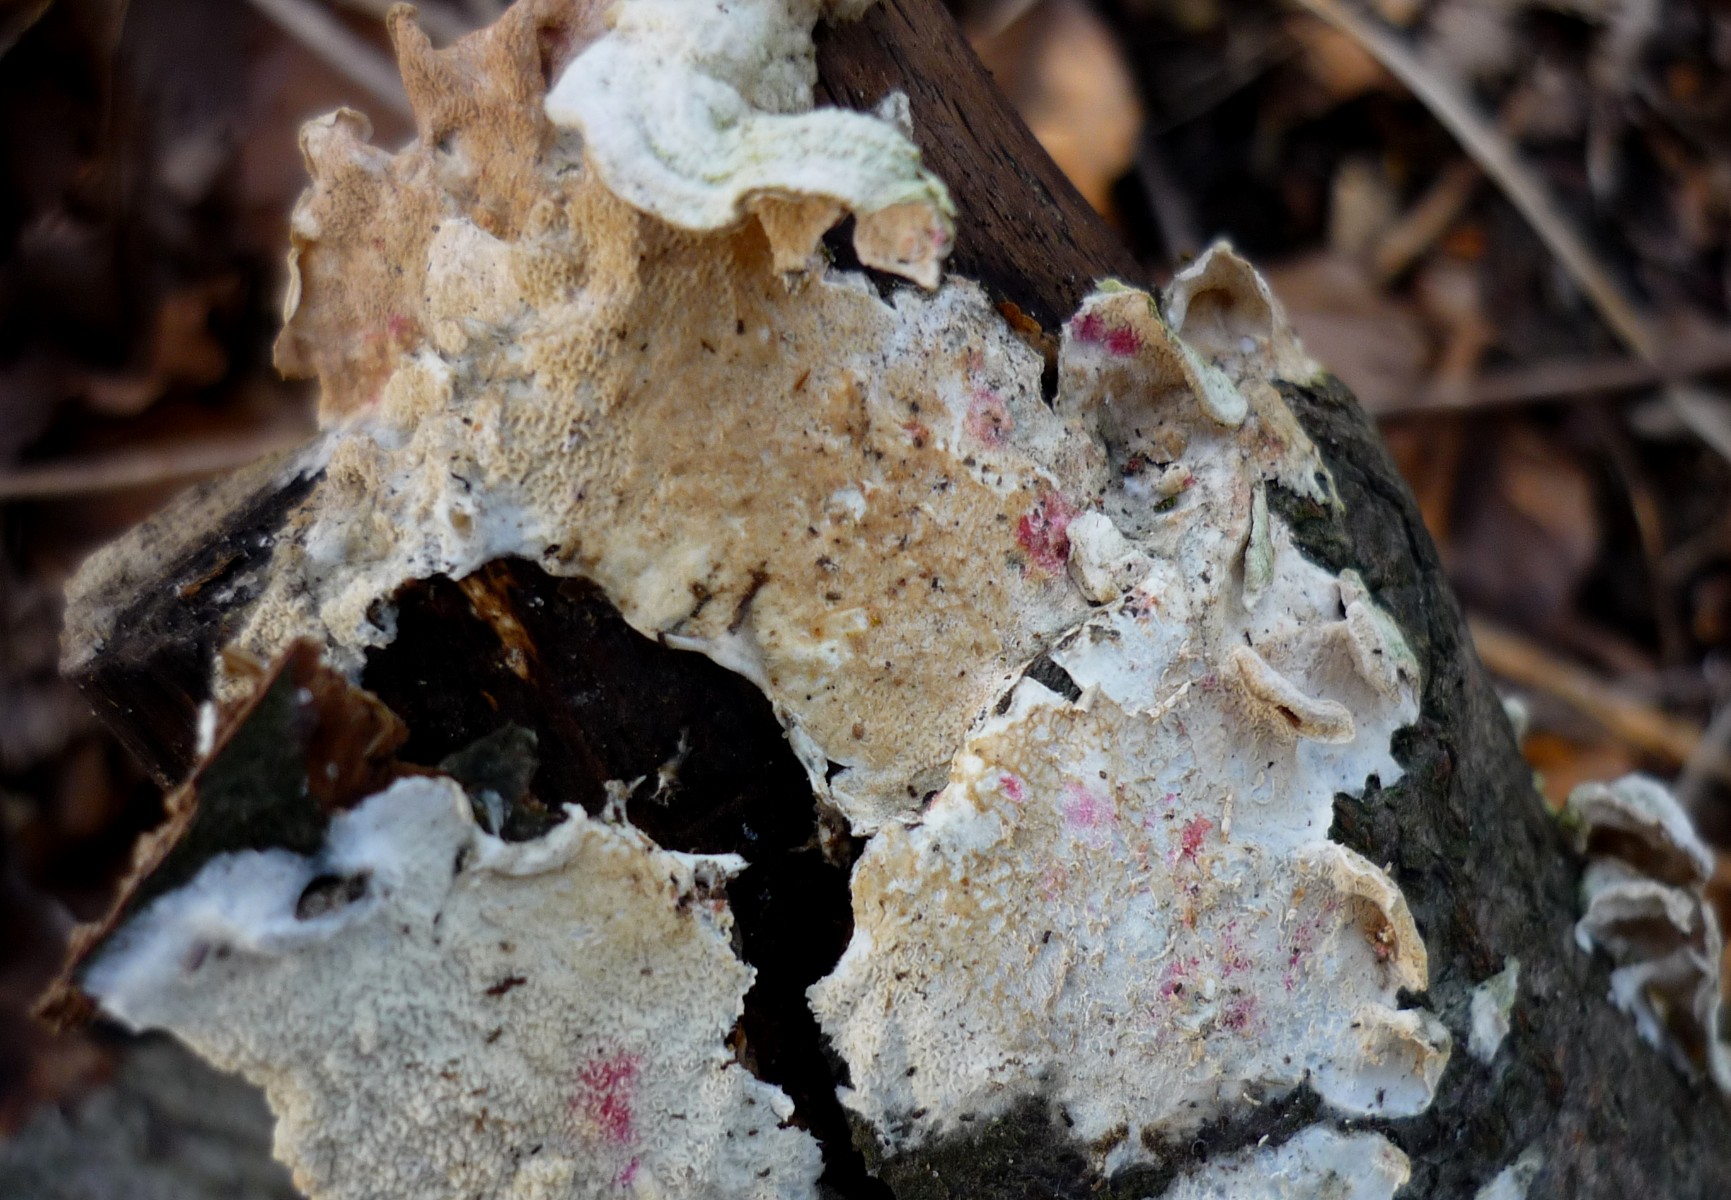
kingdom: Fungi
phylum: Basidiomycota
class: Agaricomycetes
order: Polyporales
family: Irpicaceae
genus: Byssomerulius
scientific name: Byssomerulius corium
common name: læder-åresvamp
